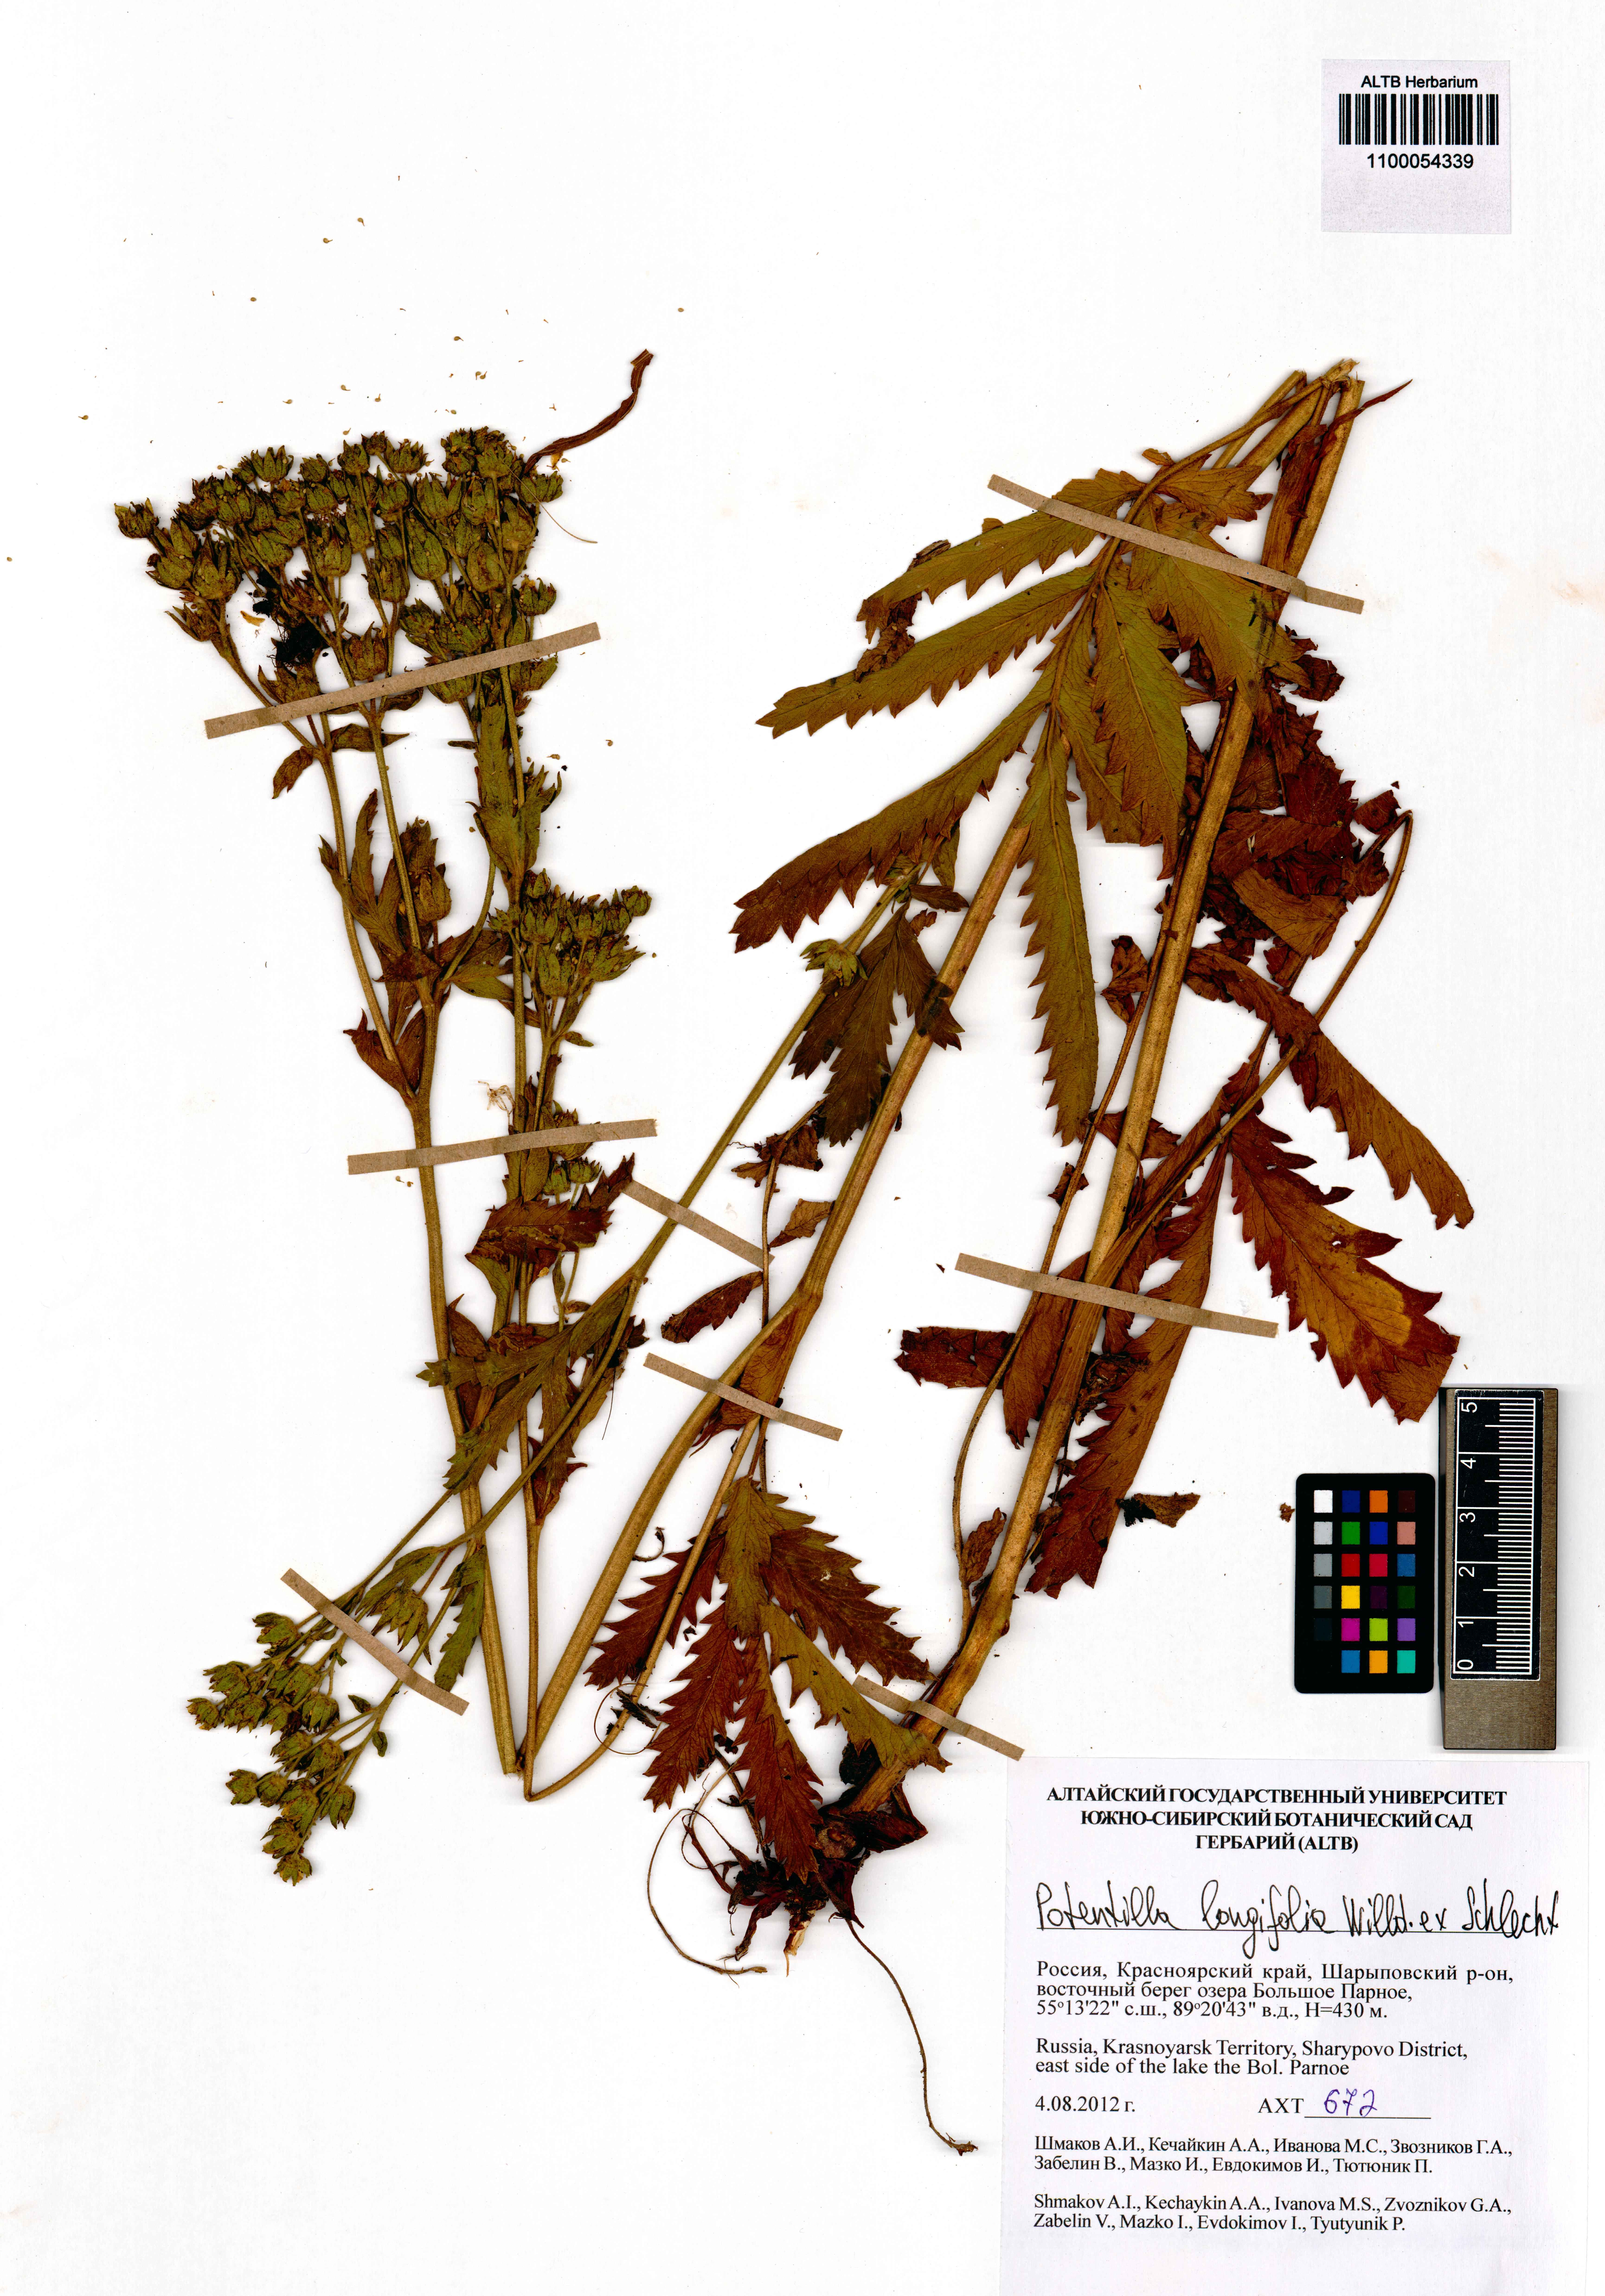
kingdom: Plantae
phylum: Tracheophyta
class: Magnoliopsida
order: Rosales
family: Rosaceae
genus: Potentilla
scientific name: Potentilla longifolia
